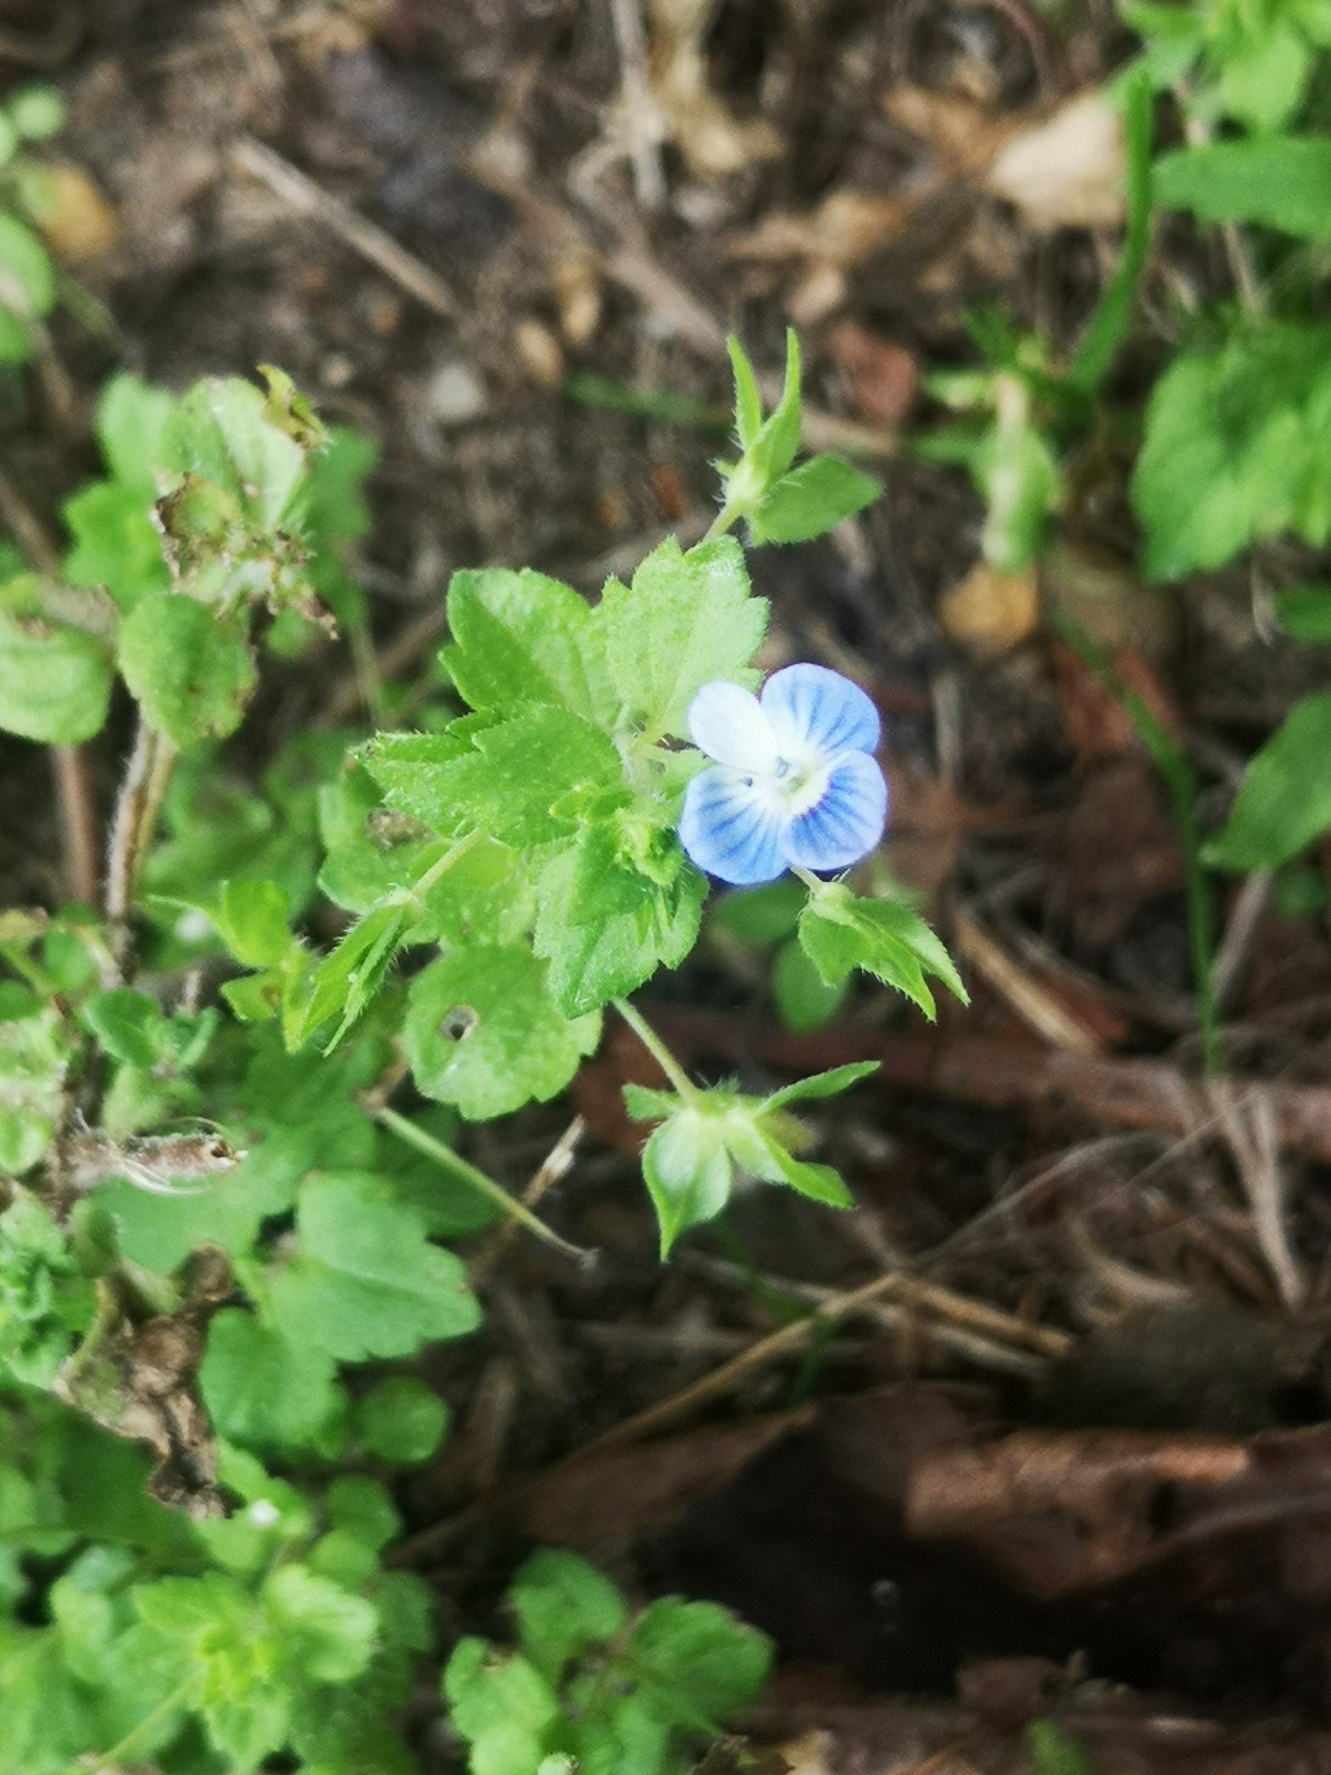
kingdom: Plantae
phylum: Tracheophyta
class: Magnoliopsida
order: Lamiales
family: Plantaginaceae
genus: Veronica
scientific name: Veronica persica
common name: Storkronet ærenpris
